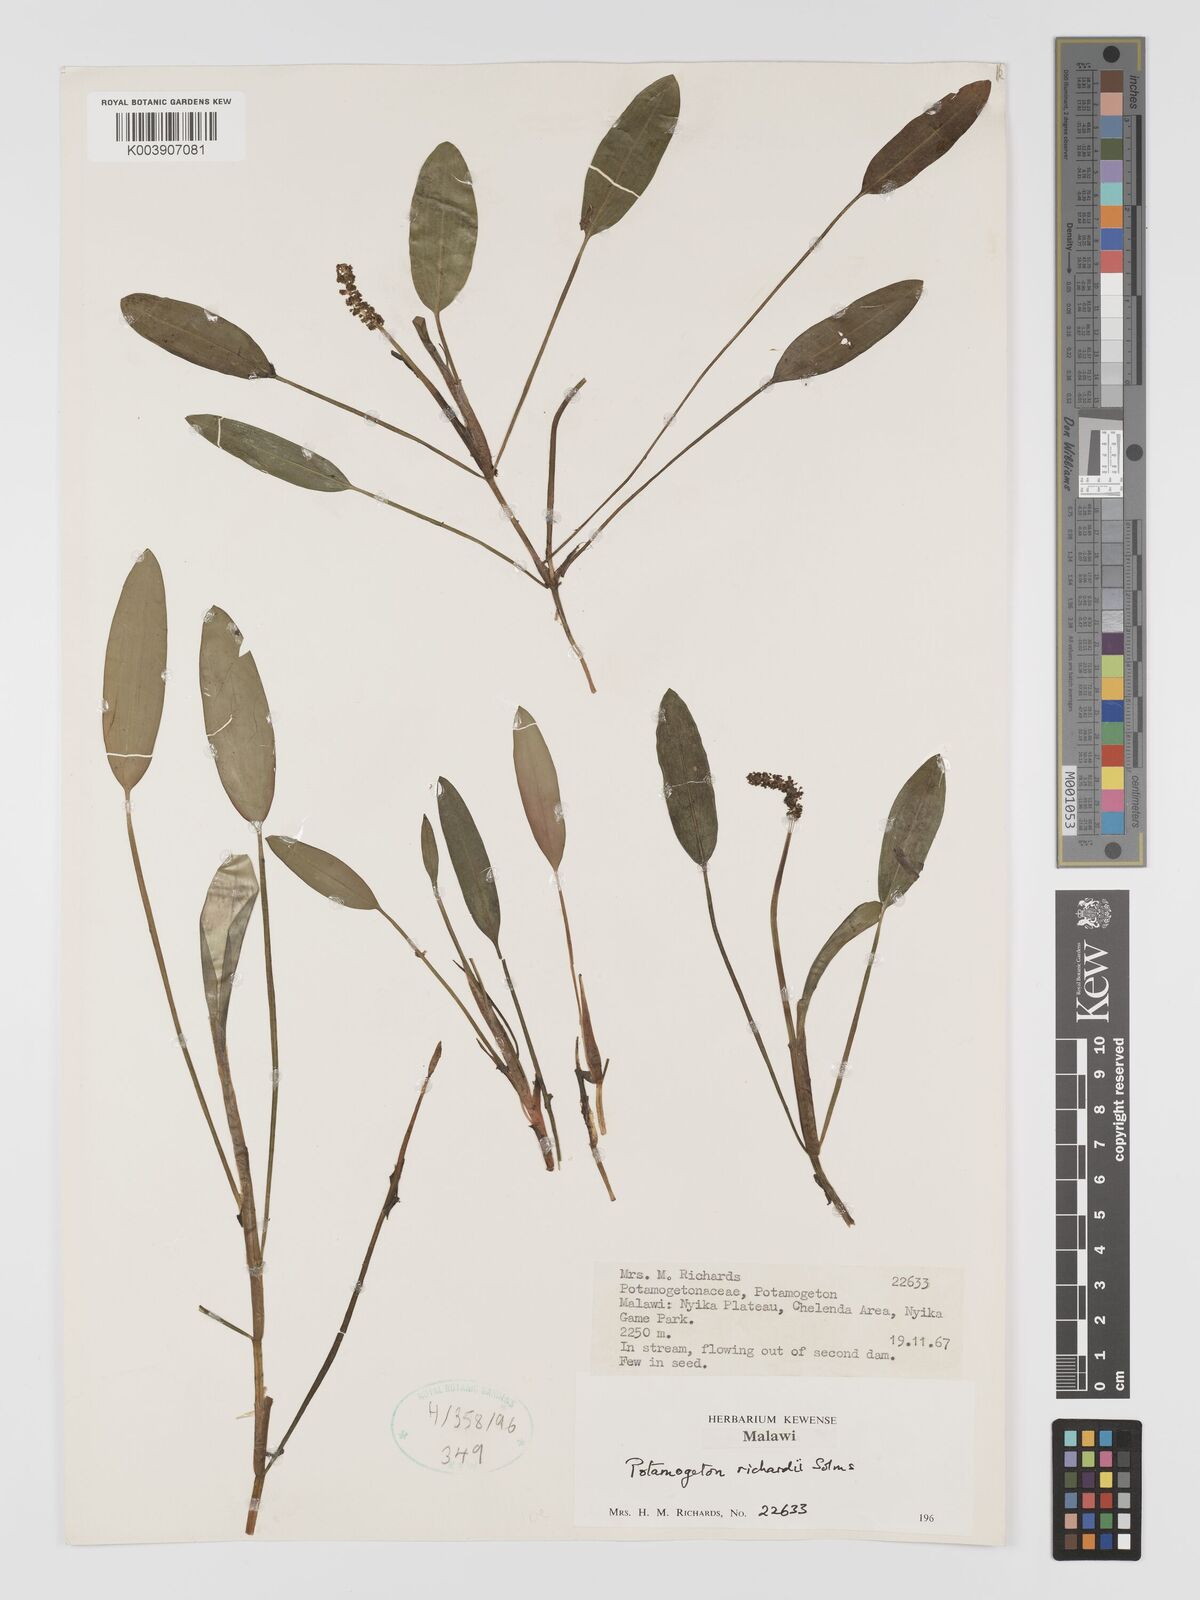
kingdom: Plantae
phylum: Tracheophyta
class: Liliopsida
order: Alismatales
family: Potamogetonaceae
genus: Potamogeton
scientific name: Potamogeton nodosus
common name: Loddon pondweed
